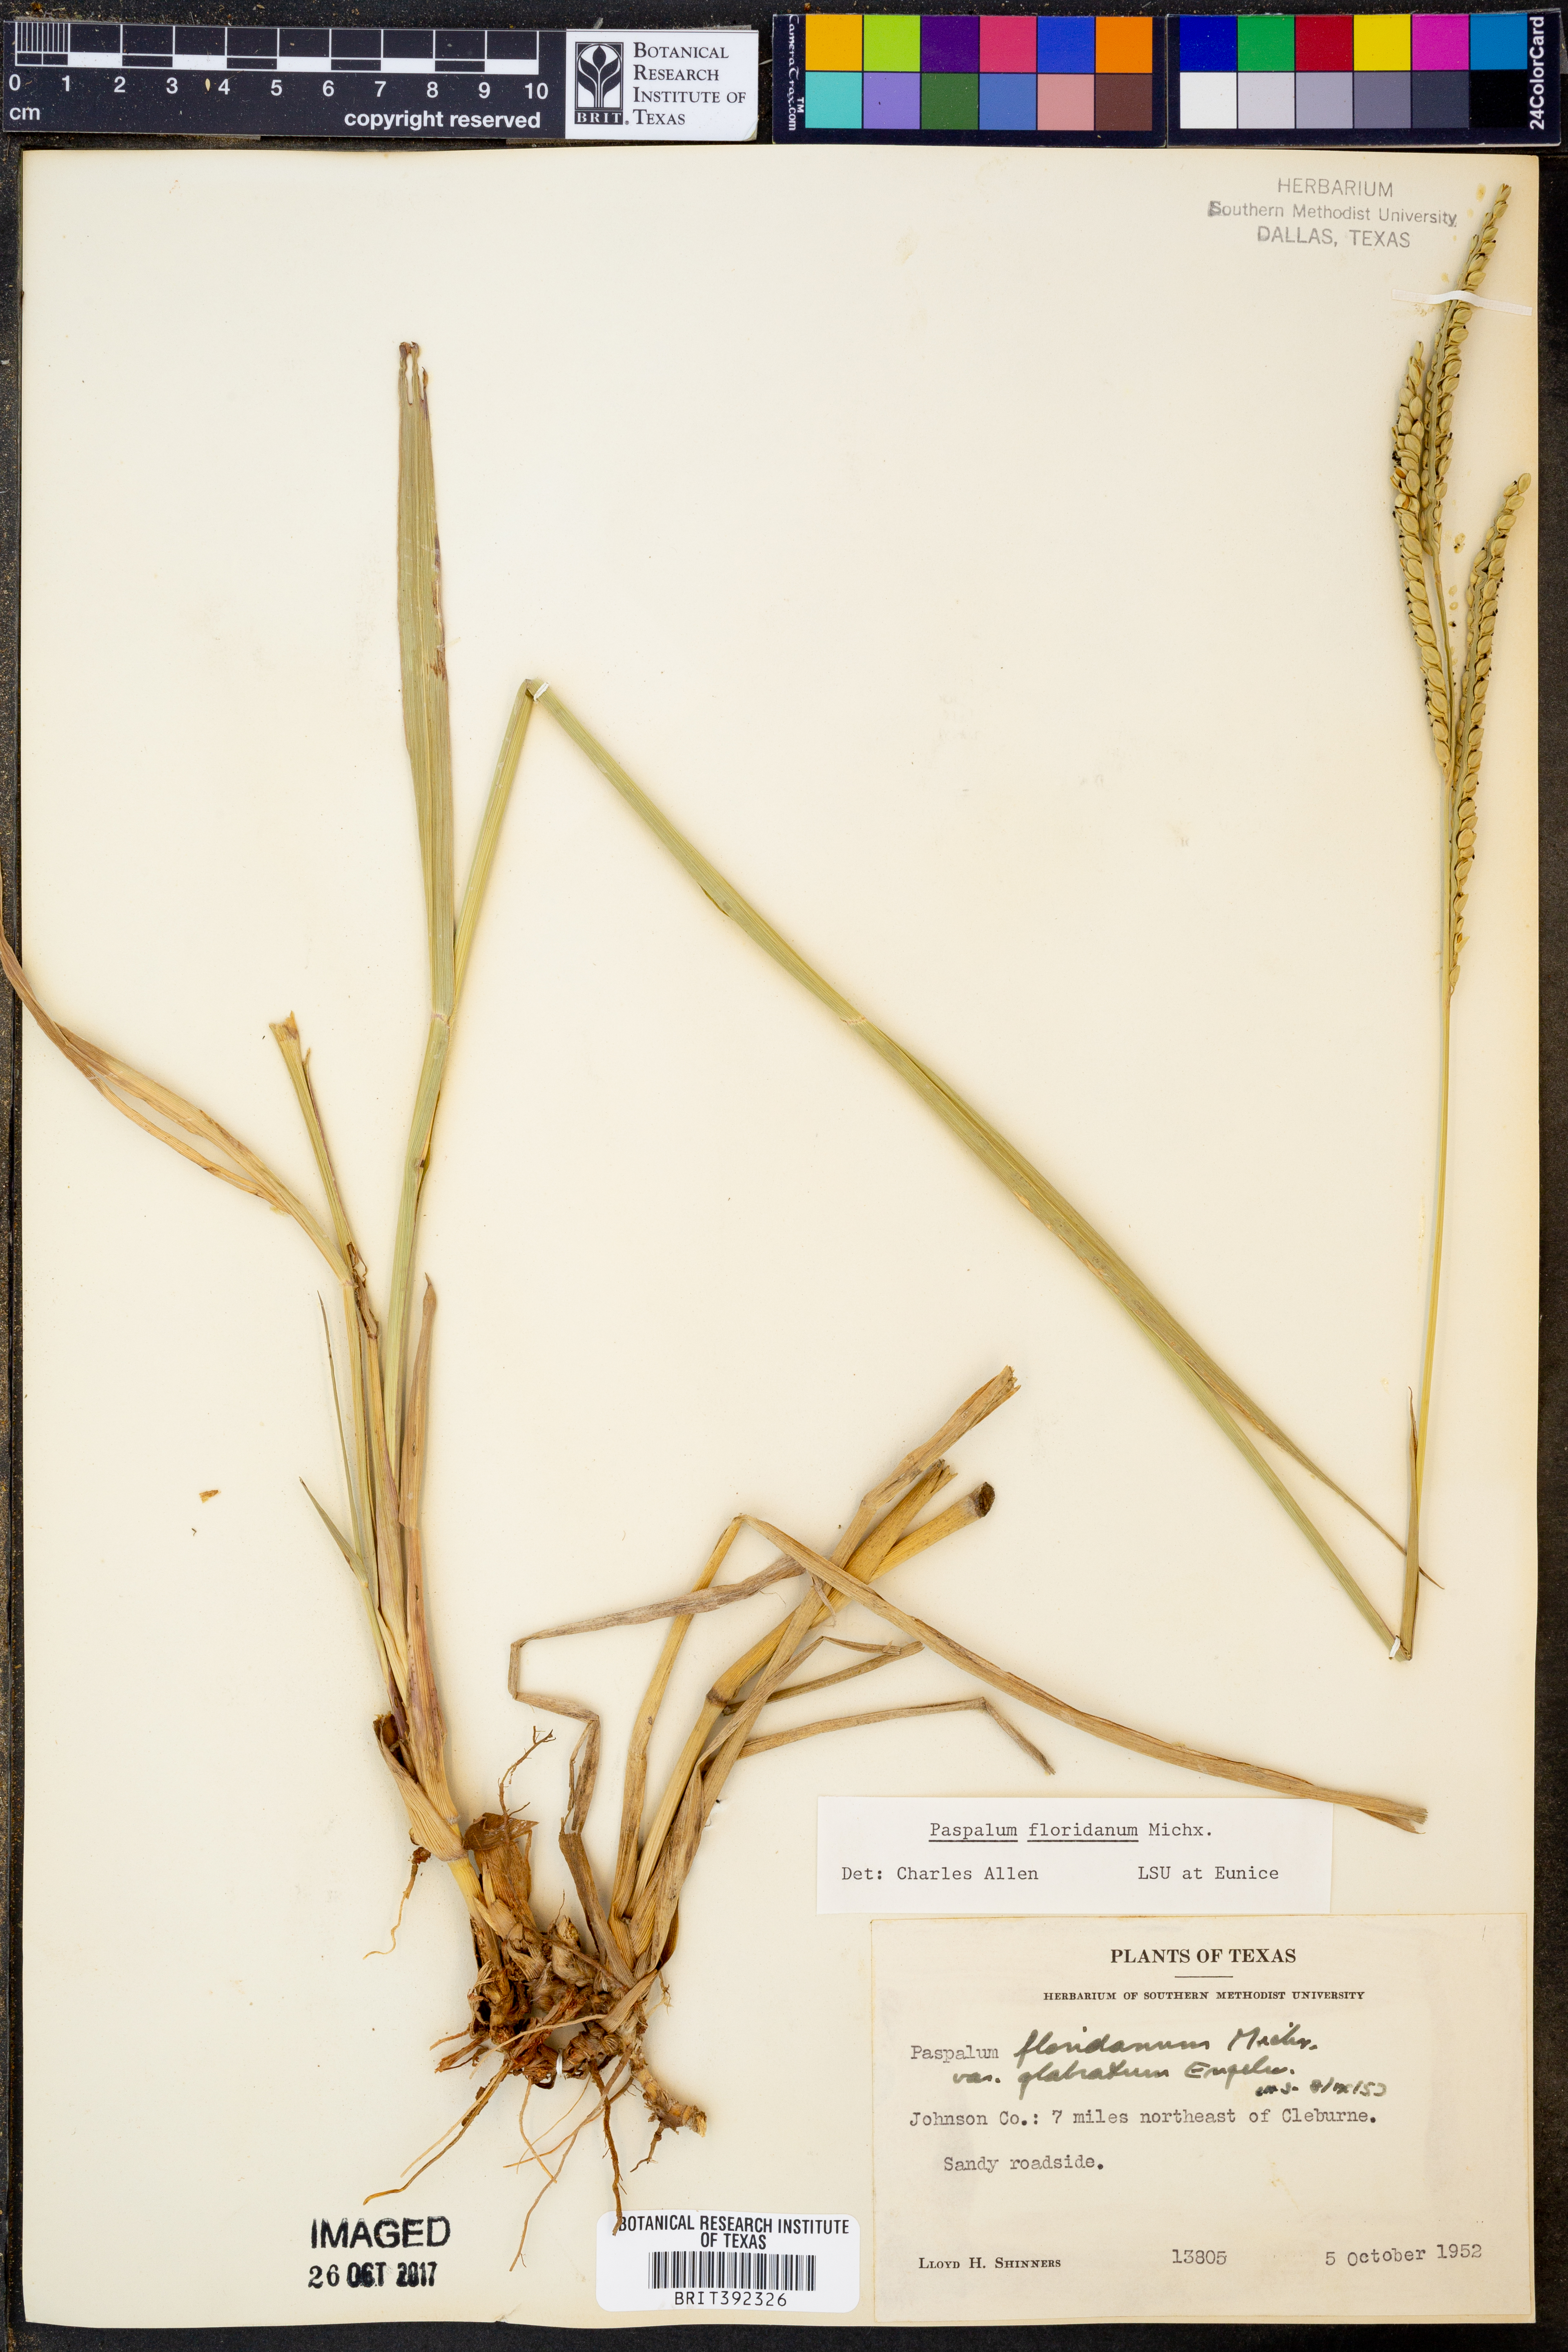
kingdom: Plantae
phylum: Tracheophyta
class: Liliopsida
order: Poales
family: Poaceae
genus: Paspalum
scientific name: Paspalum floridanum
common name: Florida paspalum
